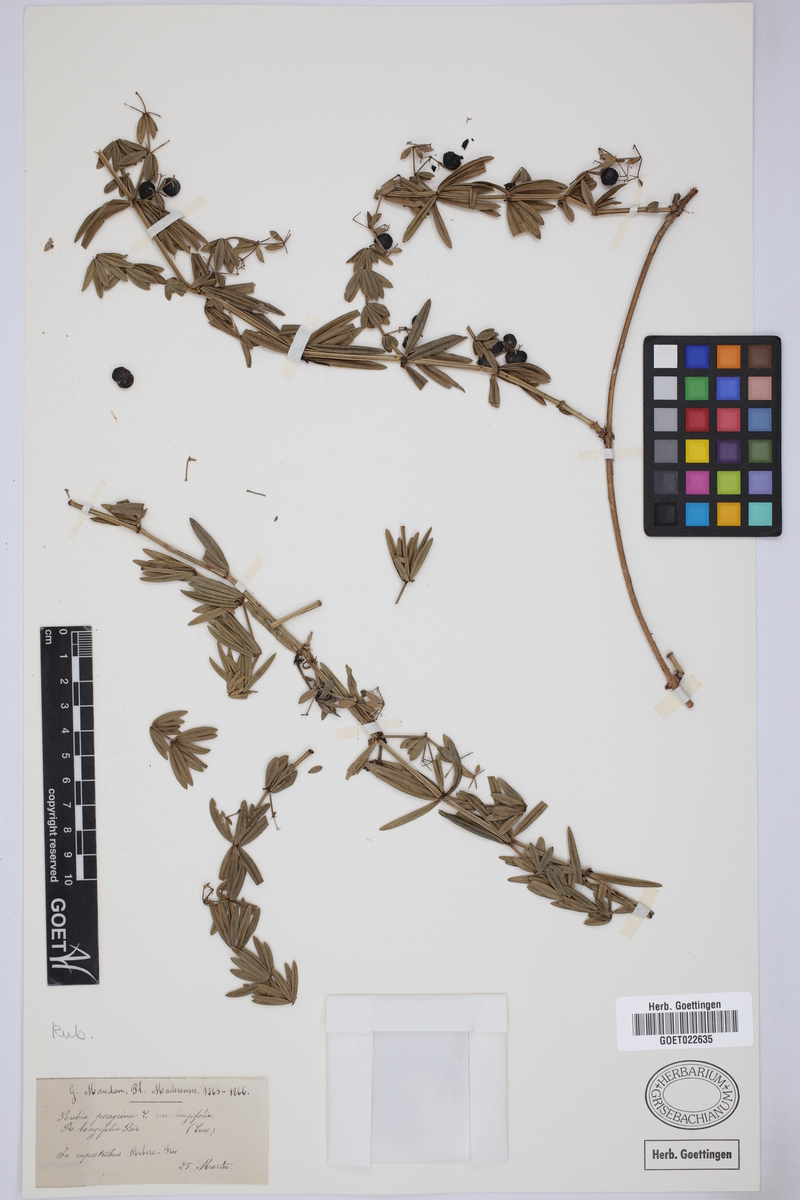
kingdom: Plantae
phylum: Tracheophyta
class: Magnoliopsida
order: Gentianales
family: Rubiaceae
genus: Rubia
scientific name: Rubia peregrina
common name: Wild madder
